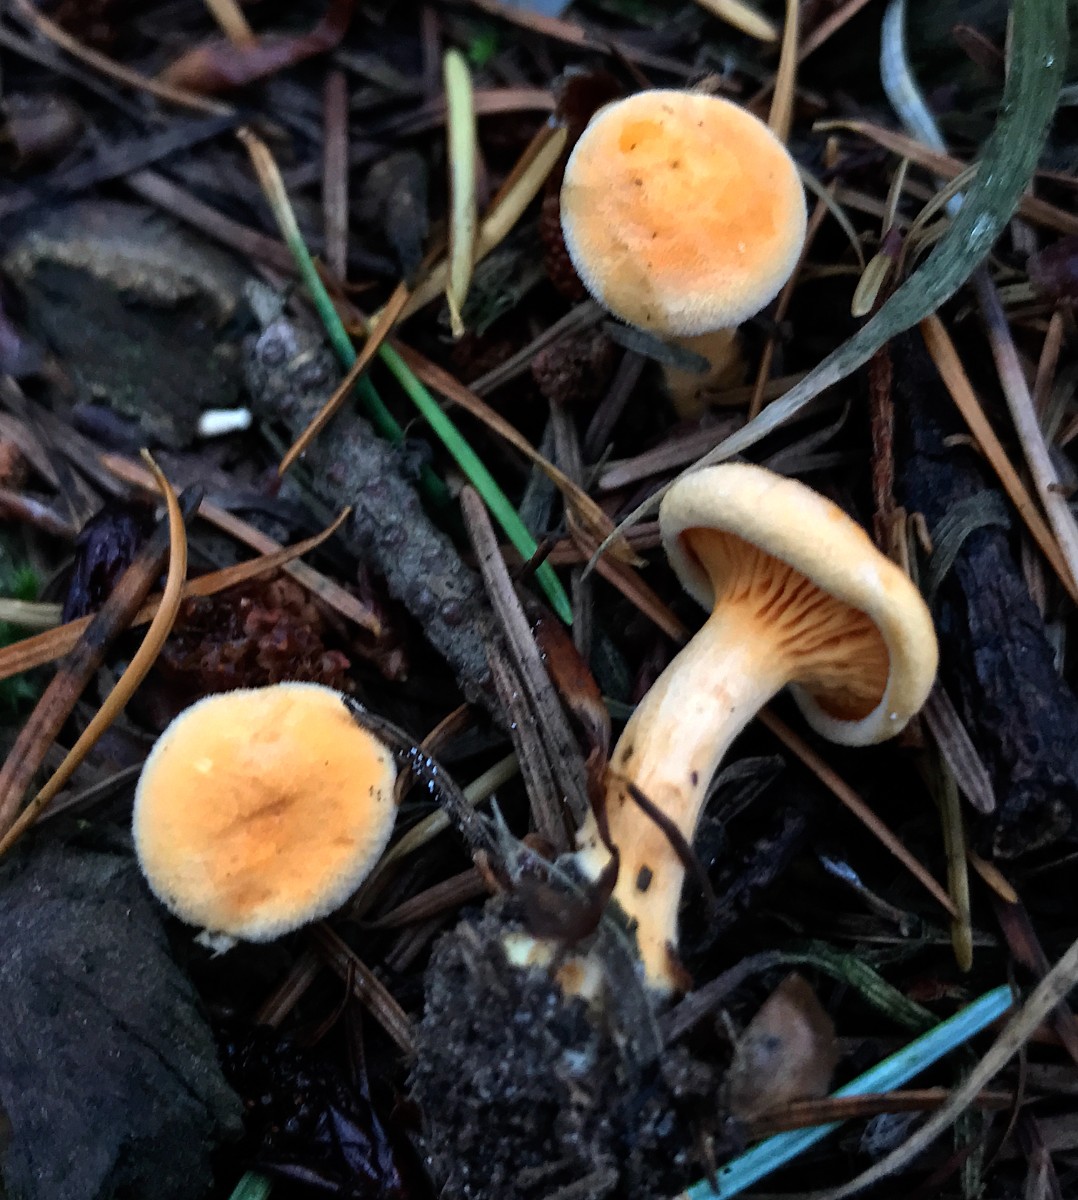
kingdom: Fungi
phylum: Basidiomycota
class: Agaricomycetes
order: Boletales
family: Hygrophoropsidaceae
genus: Hygrophoropsis
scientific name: Hygrophoropsis aurantiaca
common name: almindelig orangekantarel
